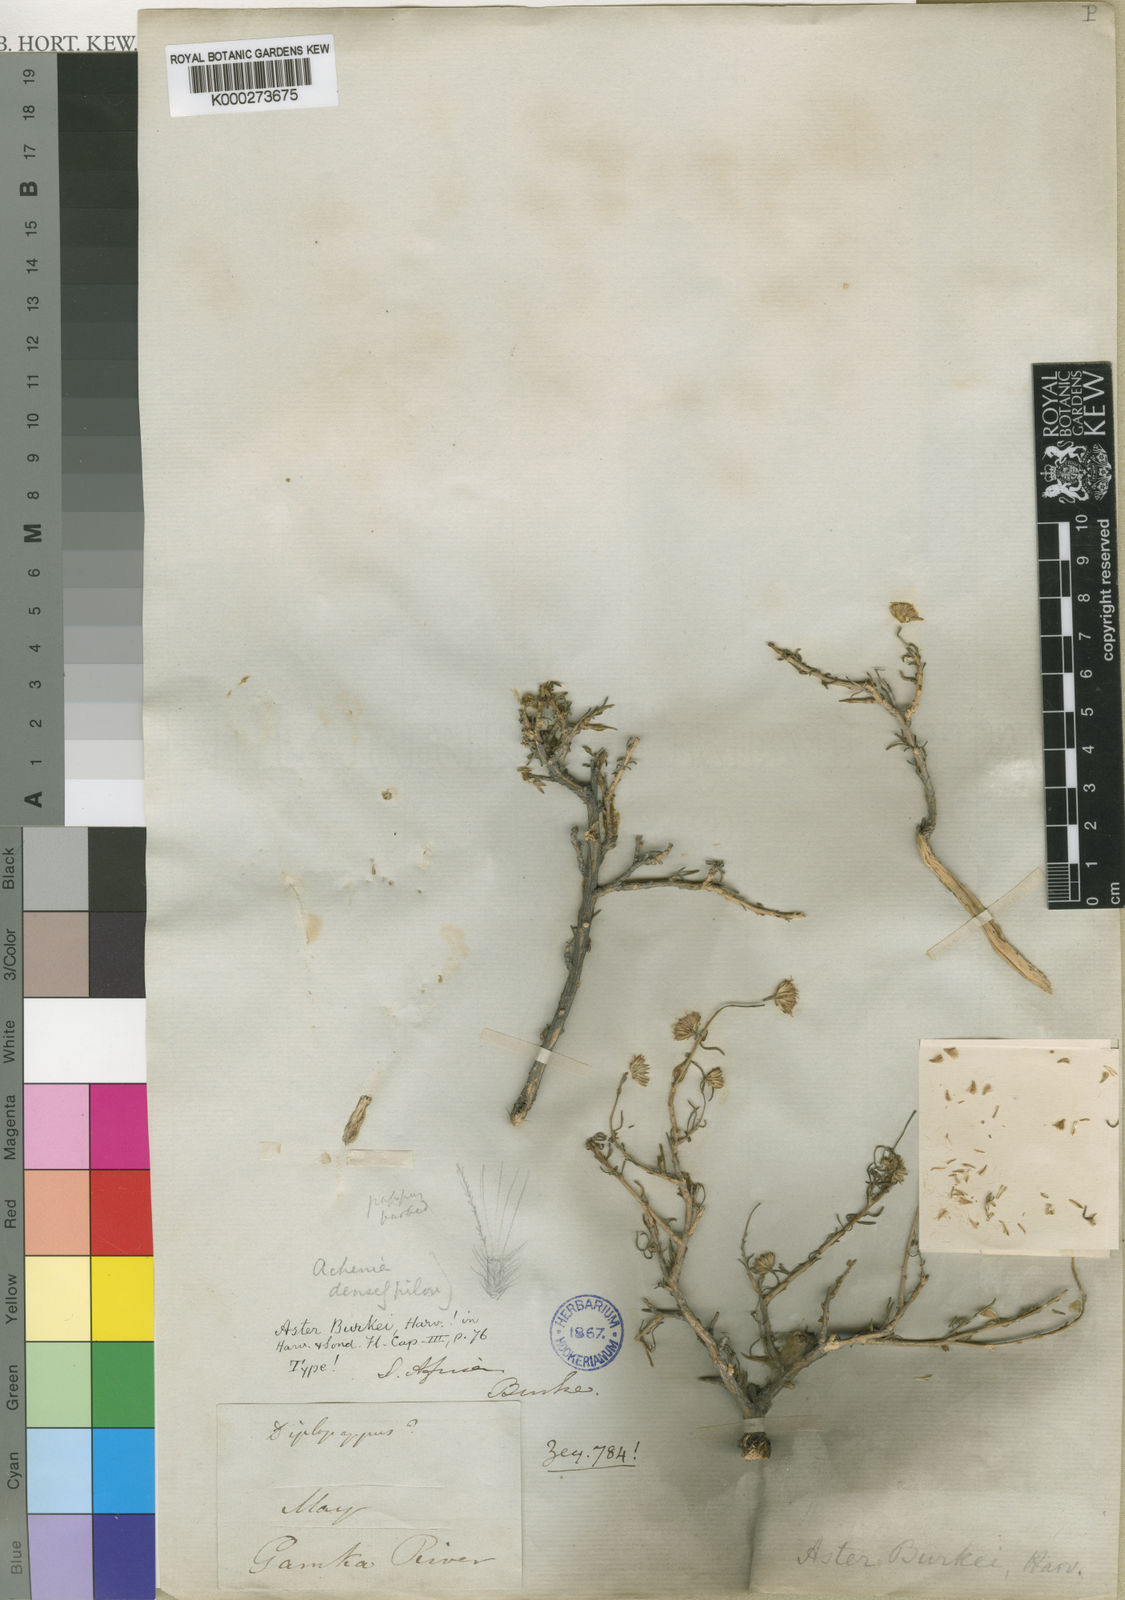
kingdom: Plantae
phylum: Tracheophyta
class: Magnoliopsida
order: Asterales
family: Asteraceae
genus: Felicia
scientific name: Felicia burkei
